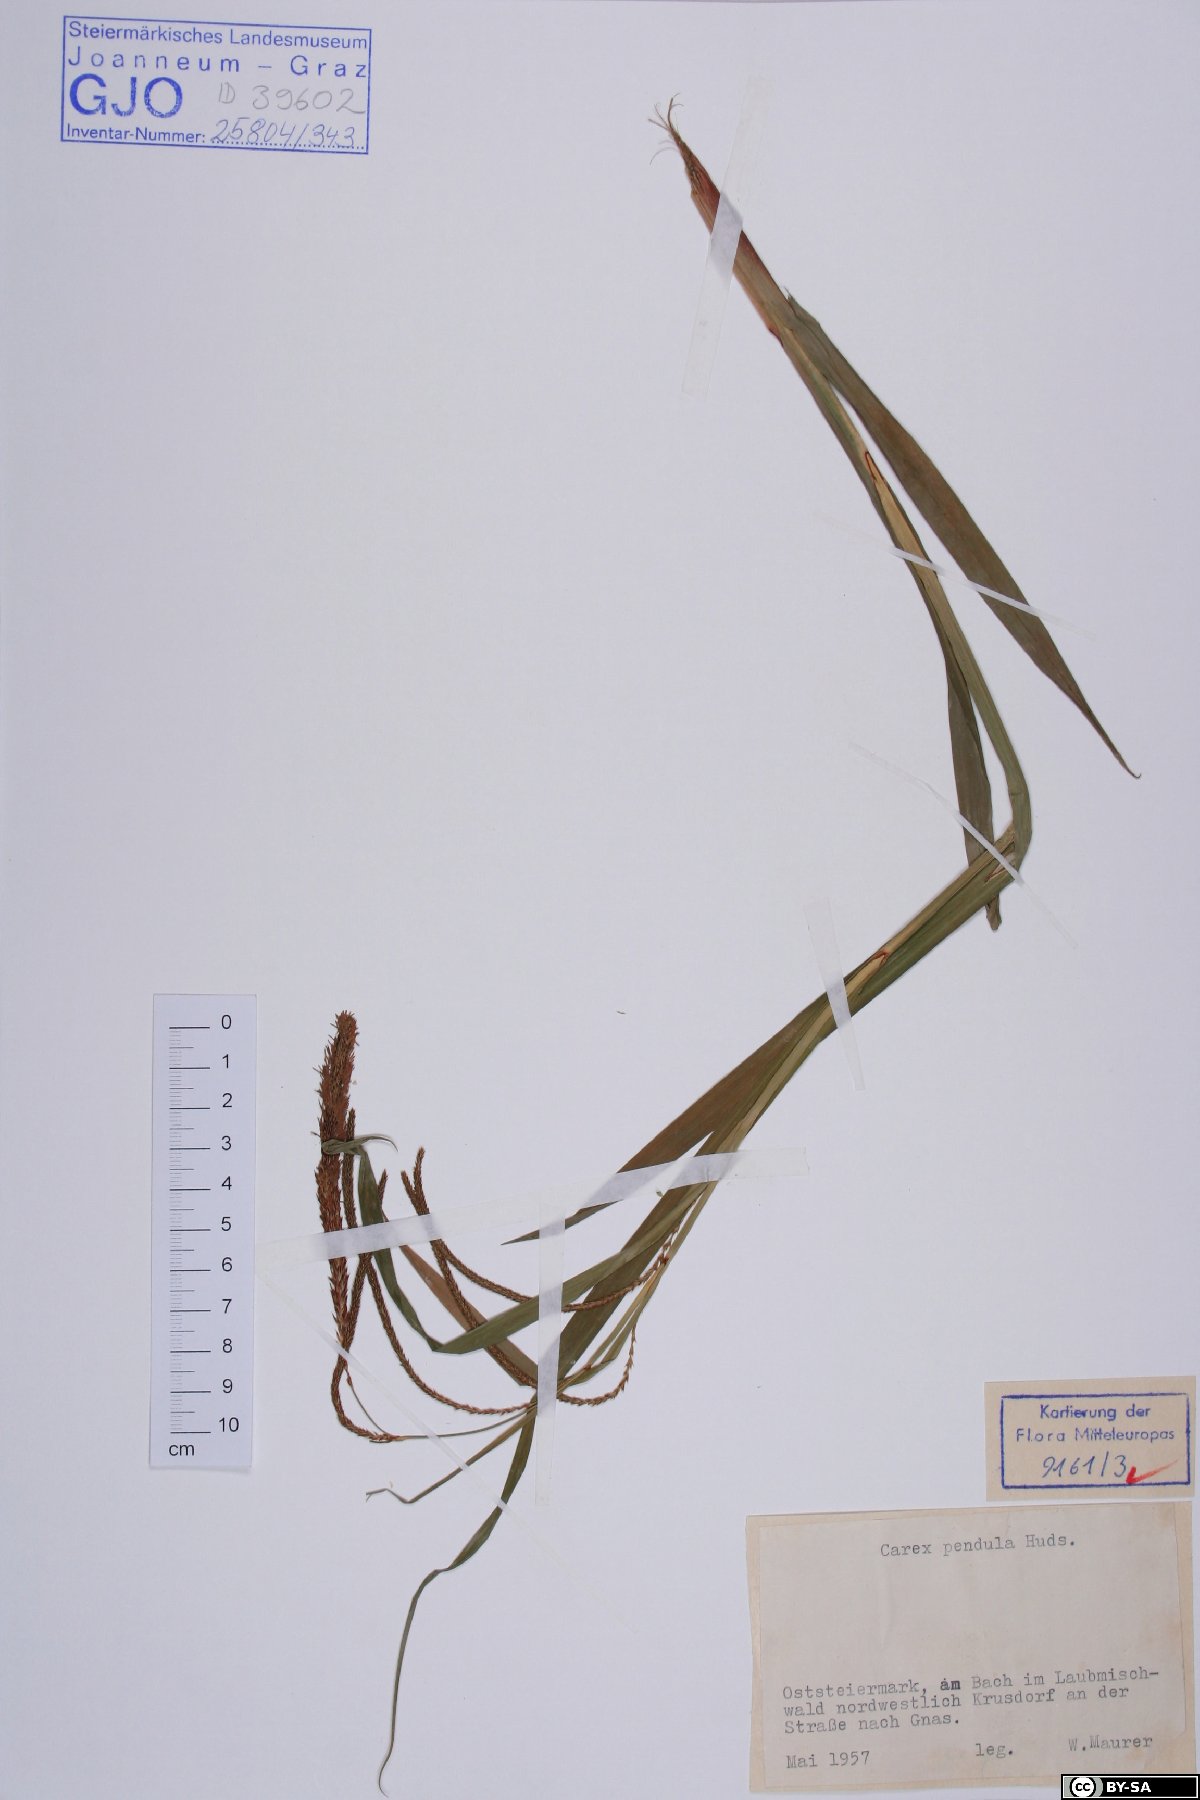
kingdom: Plantae
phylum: Tracheophyta
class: Liliopsida
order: Poales
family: Cyperaceae
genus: Carex
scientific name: Carex pendula
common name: Pendulous sedge
